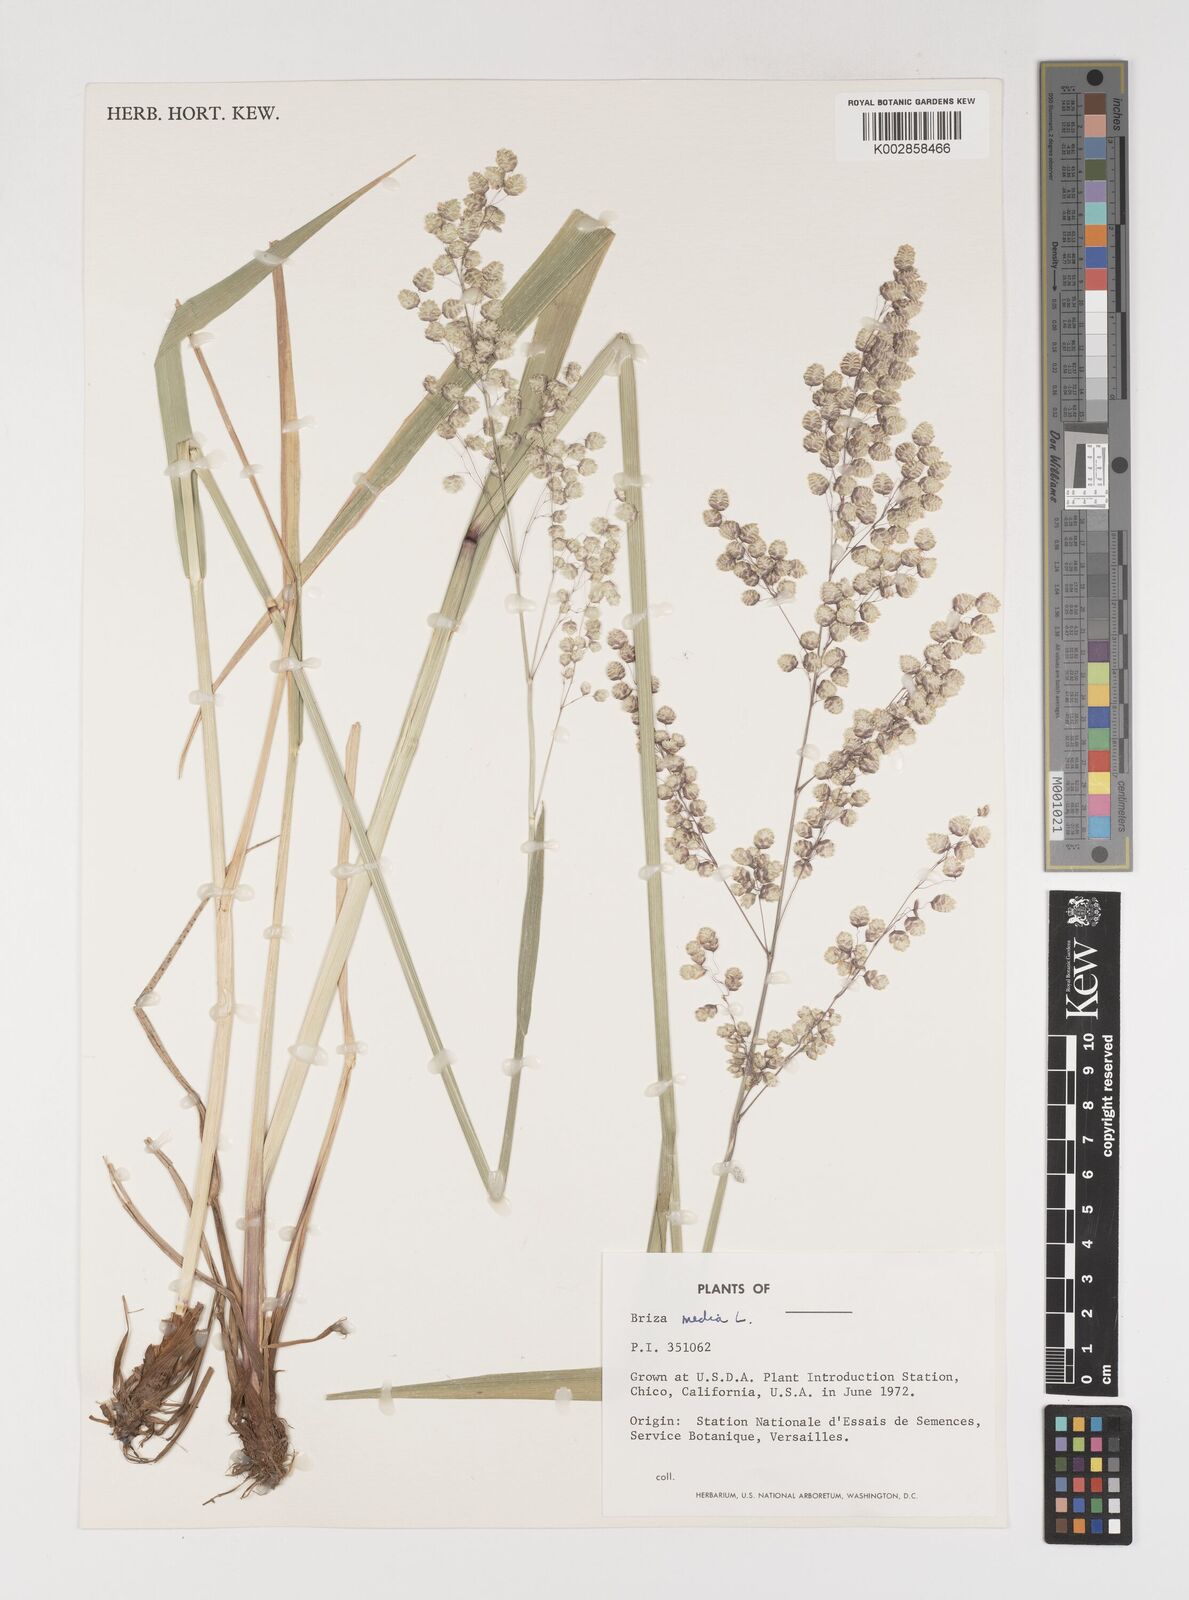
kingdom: Plantae
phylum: Tracheophyta
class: Liliopsida
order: Poales
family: Poaceae
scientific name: Poaceae
